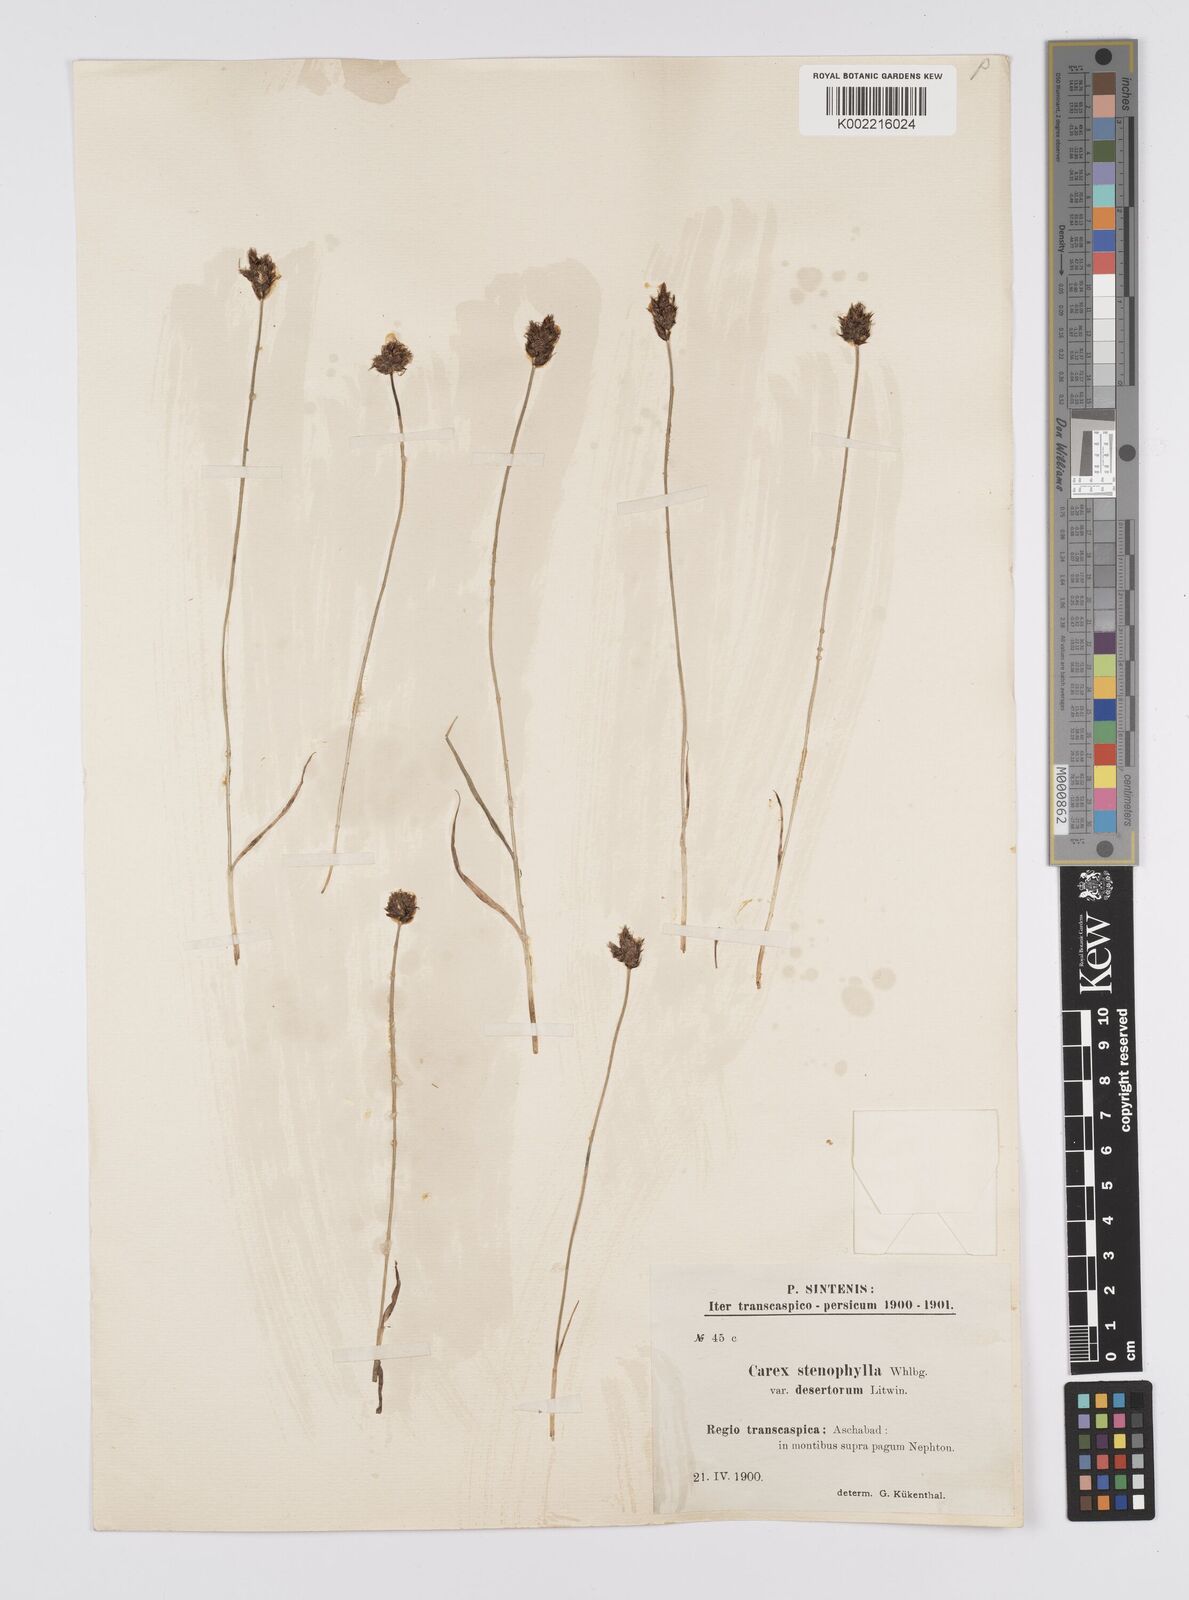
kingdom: Plantae
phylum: Tracheophyta
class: Liliopsida
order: Poales
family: Cyperaceae
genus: Carex
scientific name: Carex pachystylis
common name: Thick-stem sedge
